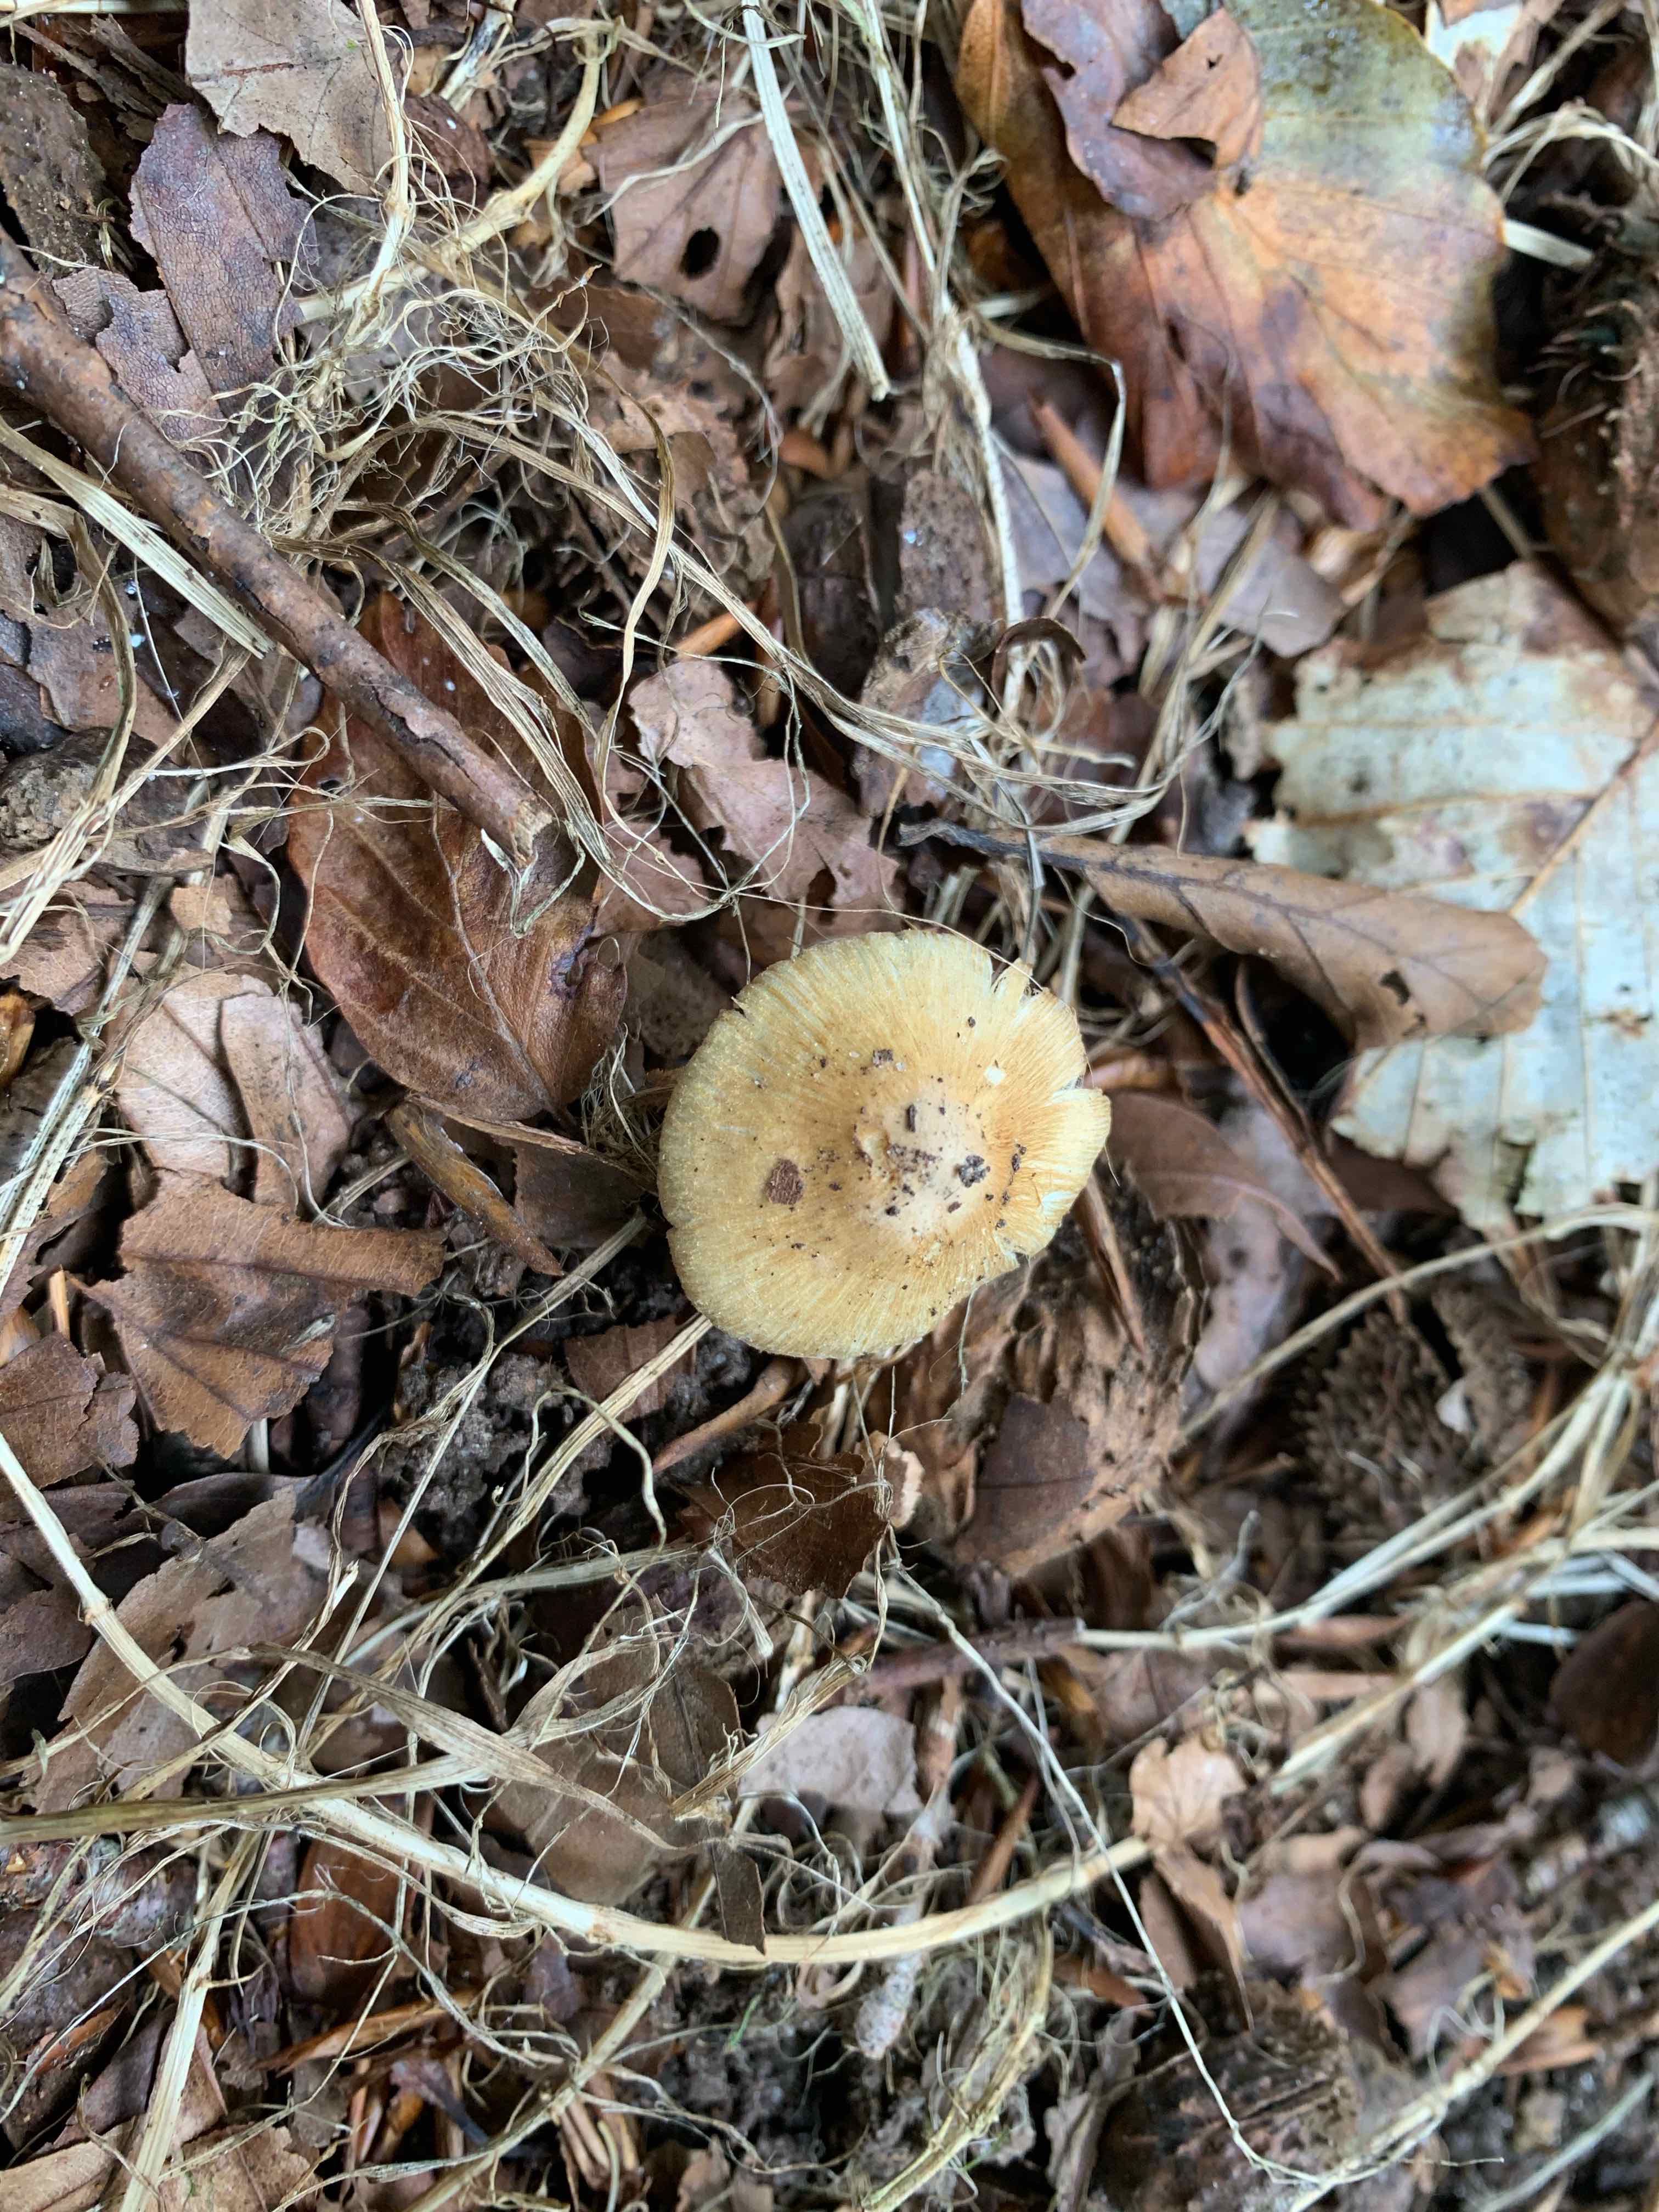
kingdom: Fungi
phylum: Basidiomycota
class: Agaricomycetes
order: Agaricales
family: Inocybaceae
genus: Inocybe
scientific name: Inocybe
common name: trævlhat
